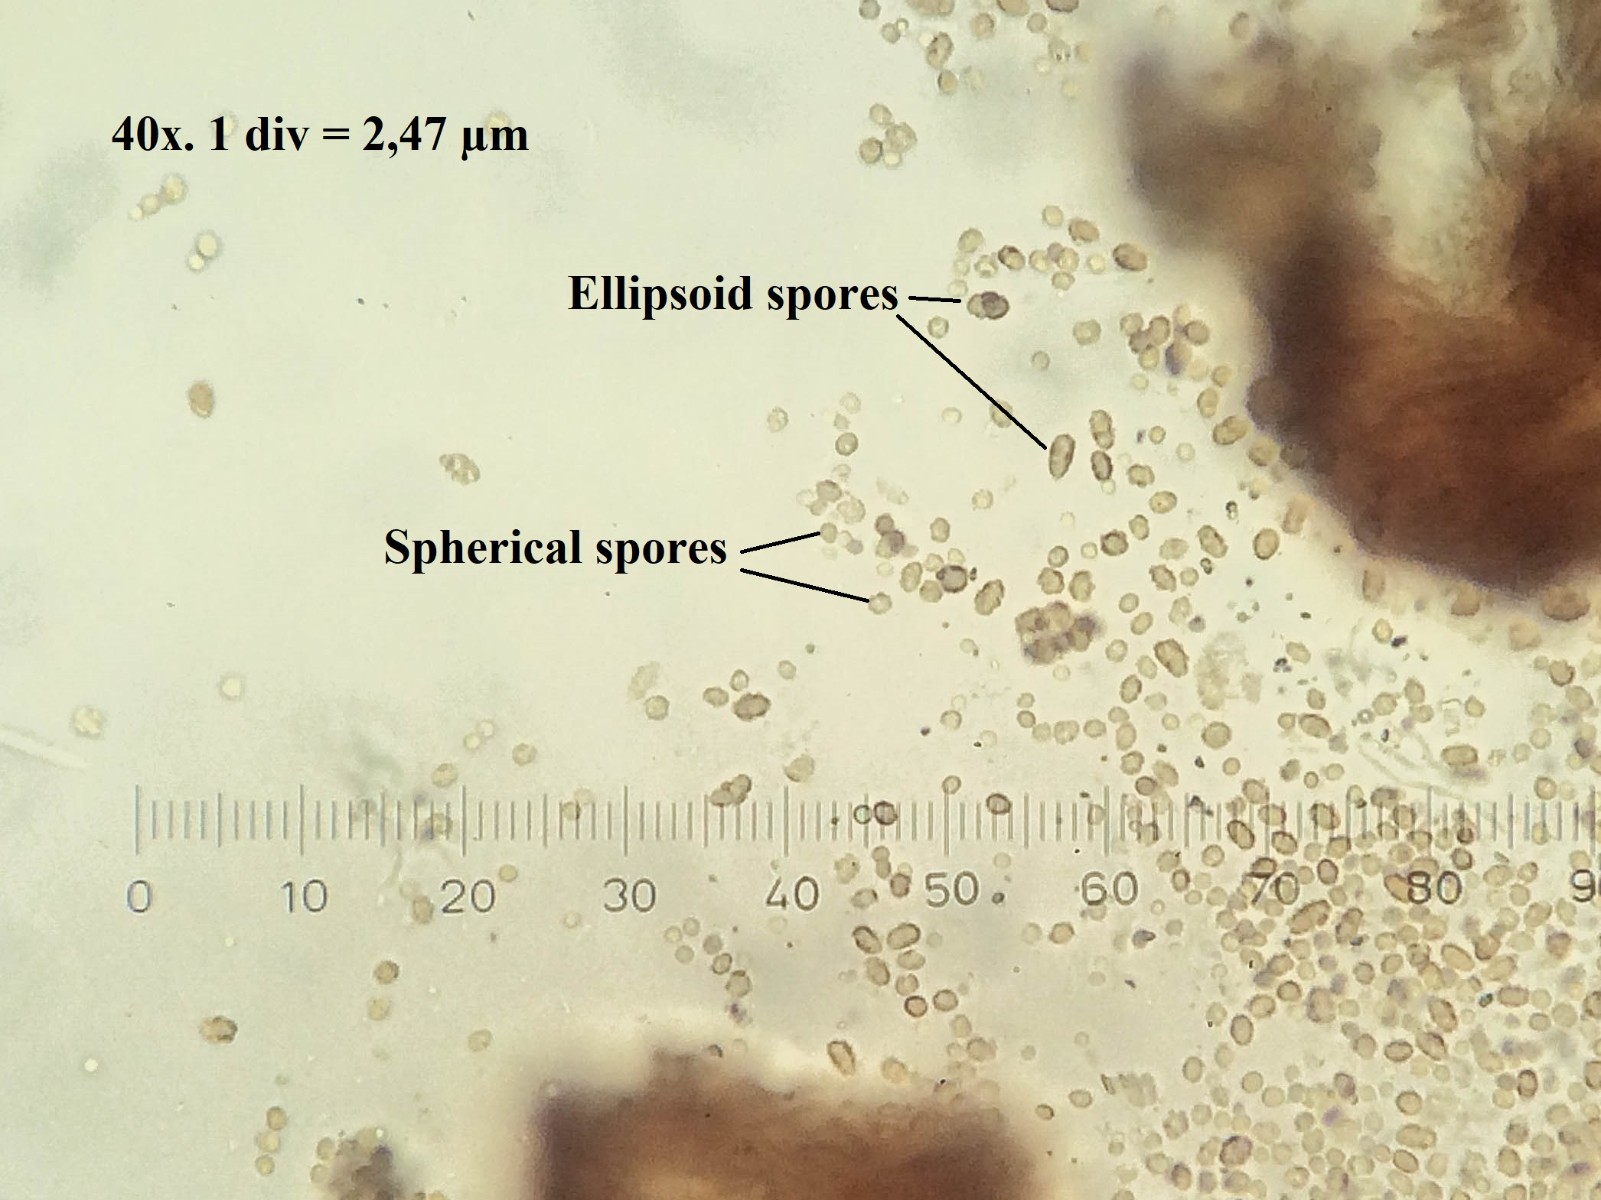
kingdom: Fungi
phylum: Ascomycota
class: Coniocybomycetes
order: Coniocybales
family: Coniocybaceae
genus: Chaenotheca
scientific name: Chaenotheca chlorella
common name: grønlig knappenålslav
